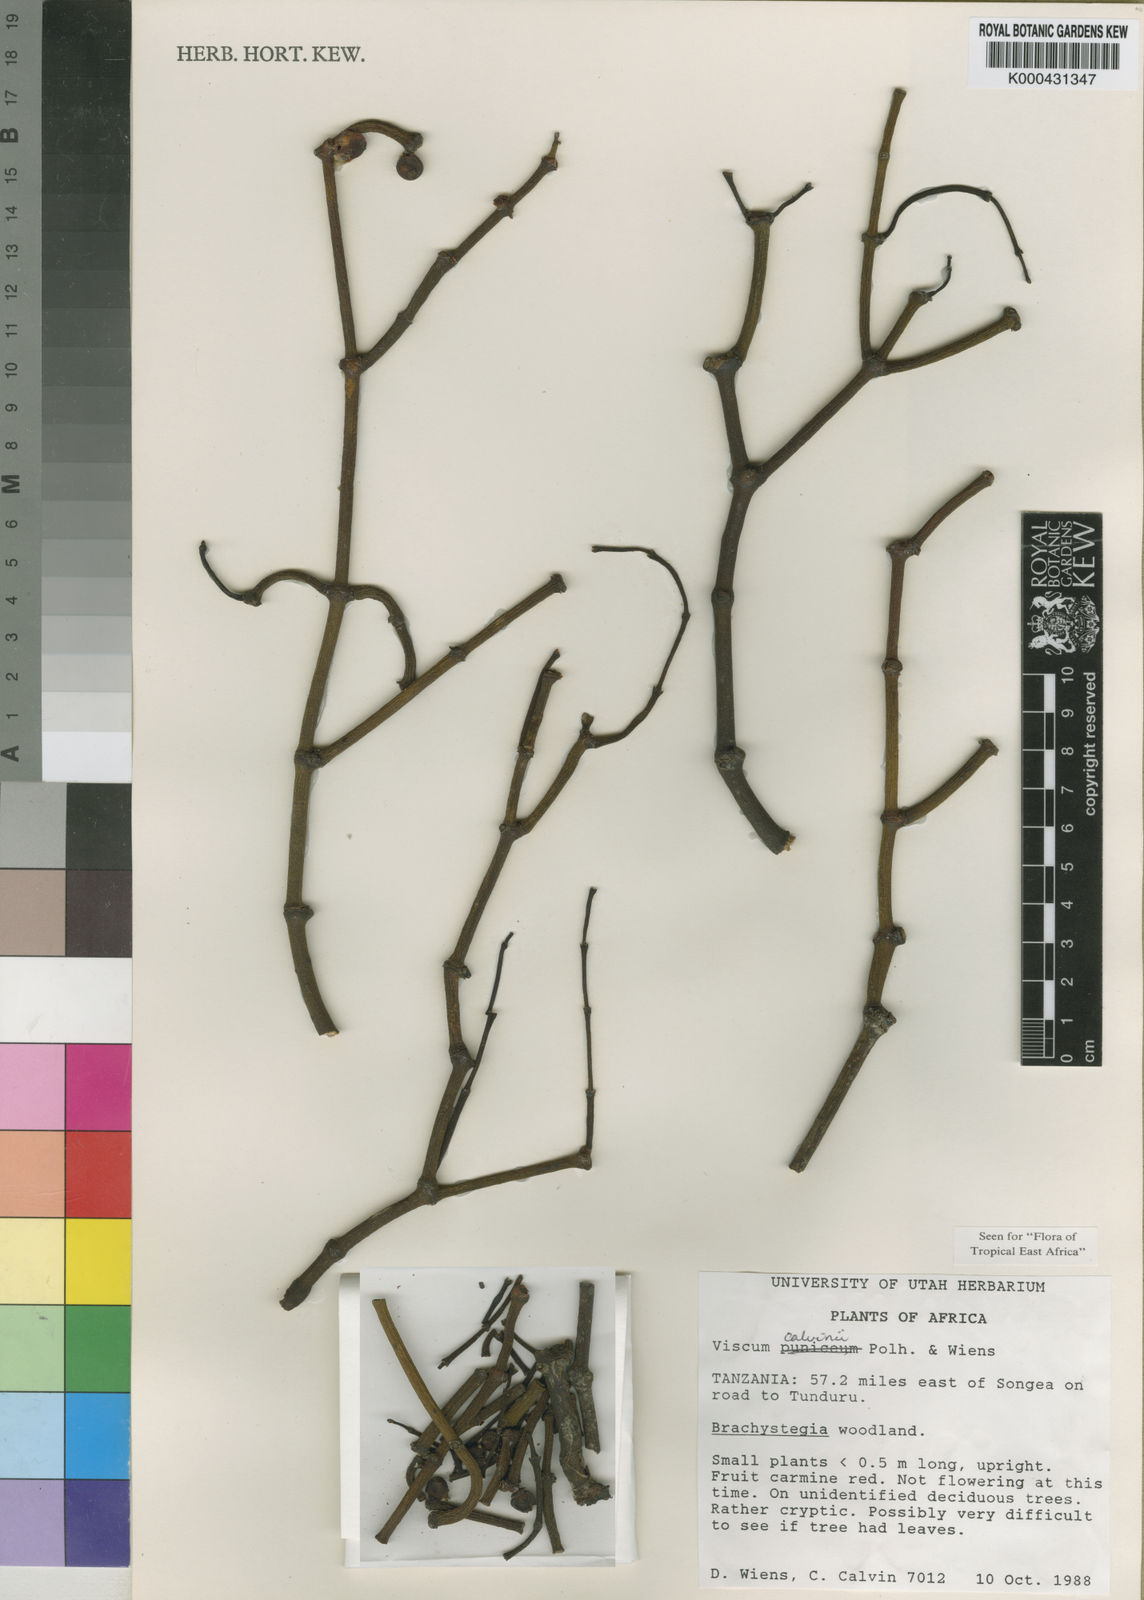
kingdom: Plantae
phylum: Tracheophyta
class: Magnoliopsida
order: Santalales
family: Viscaceae
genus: Viscum
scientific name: Viscum calvinii
